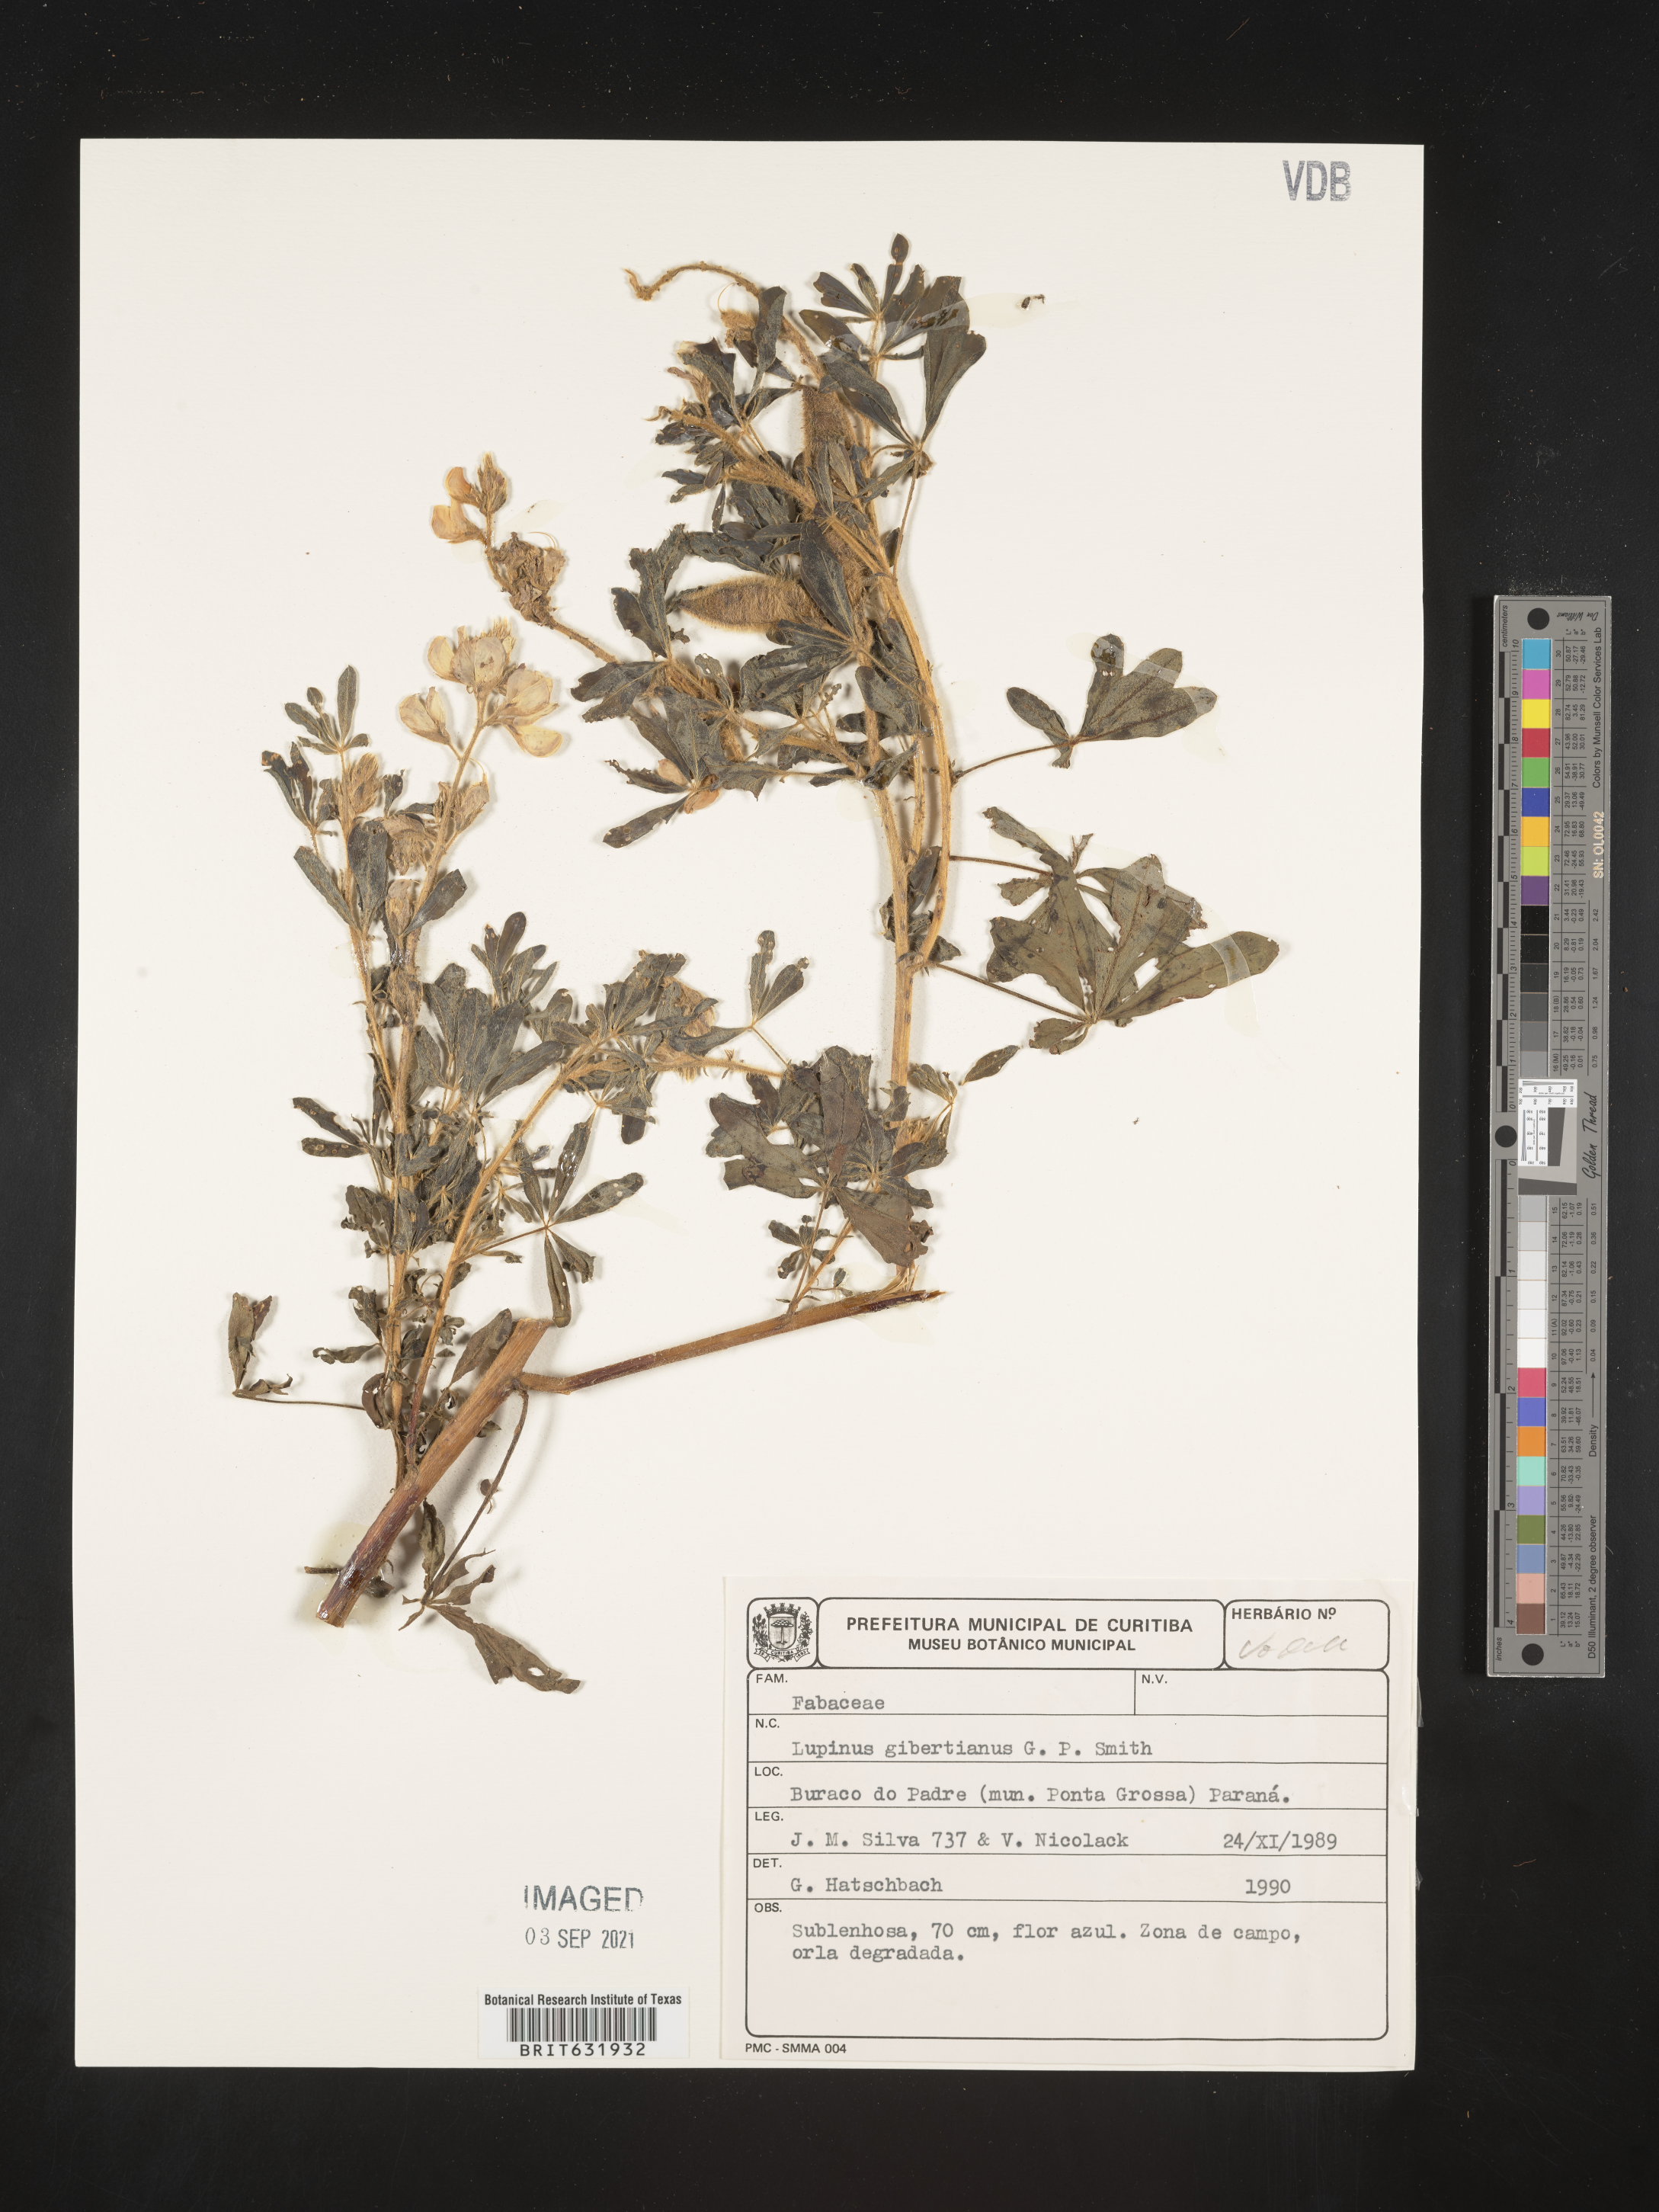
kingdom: Plantae
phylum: Tracheophyta
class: Magnoliopsida
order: Fabales
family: Fabaceae
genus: Lupinus
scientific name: Lupinus
